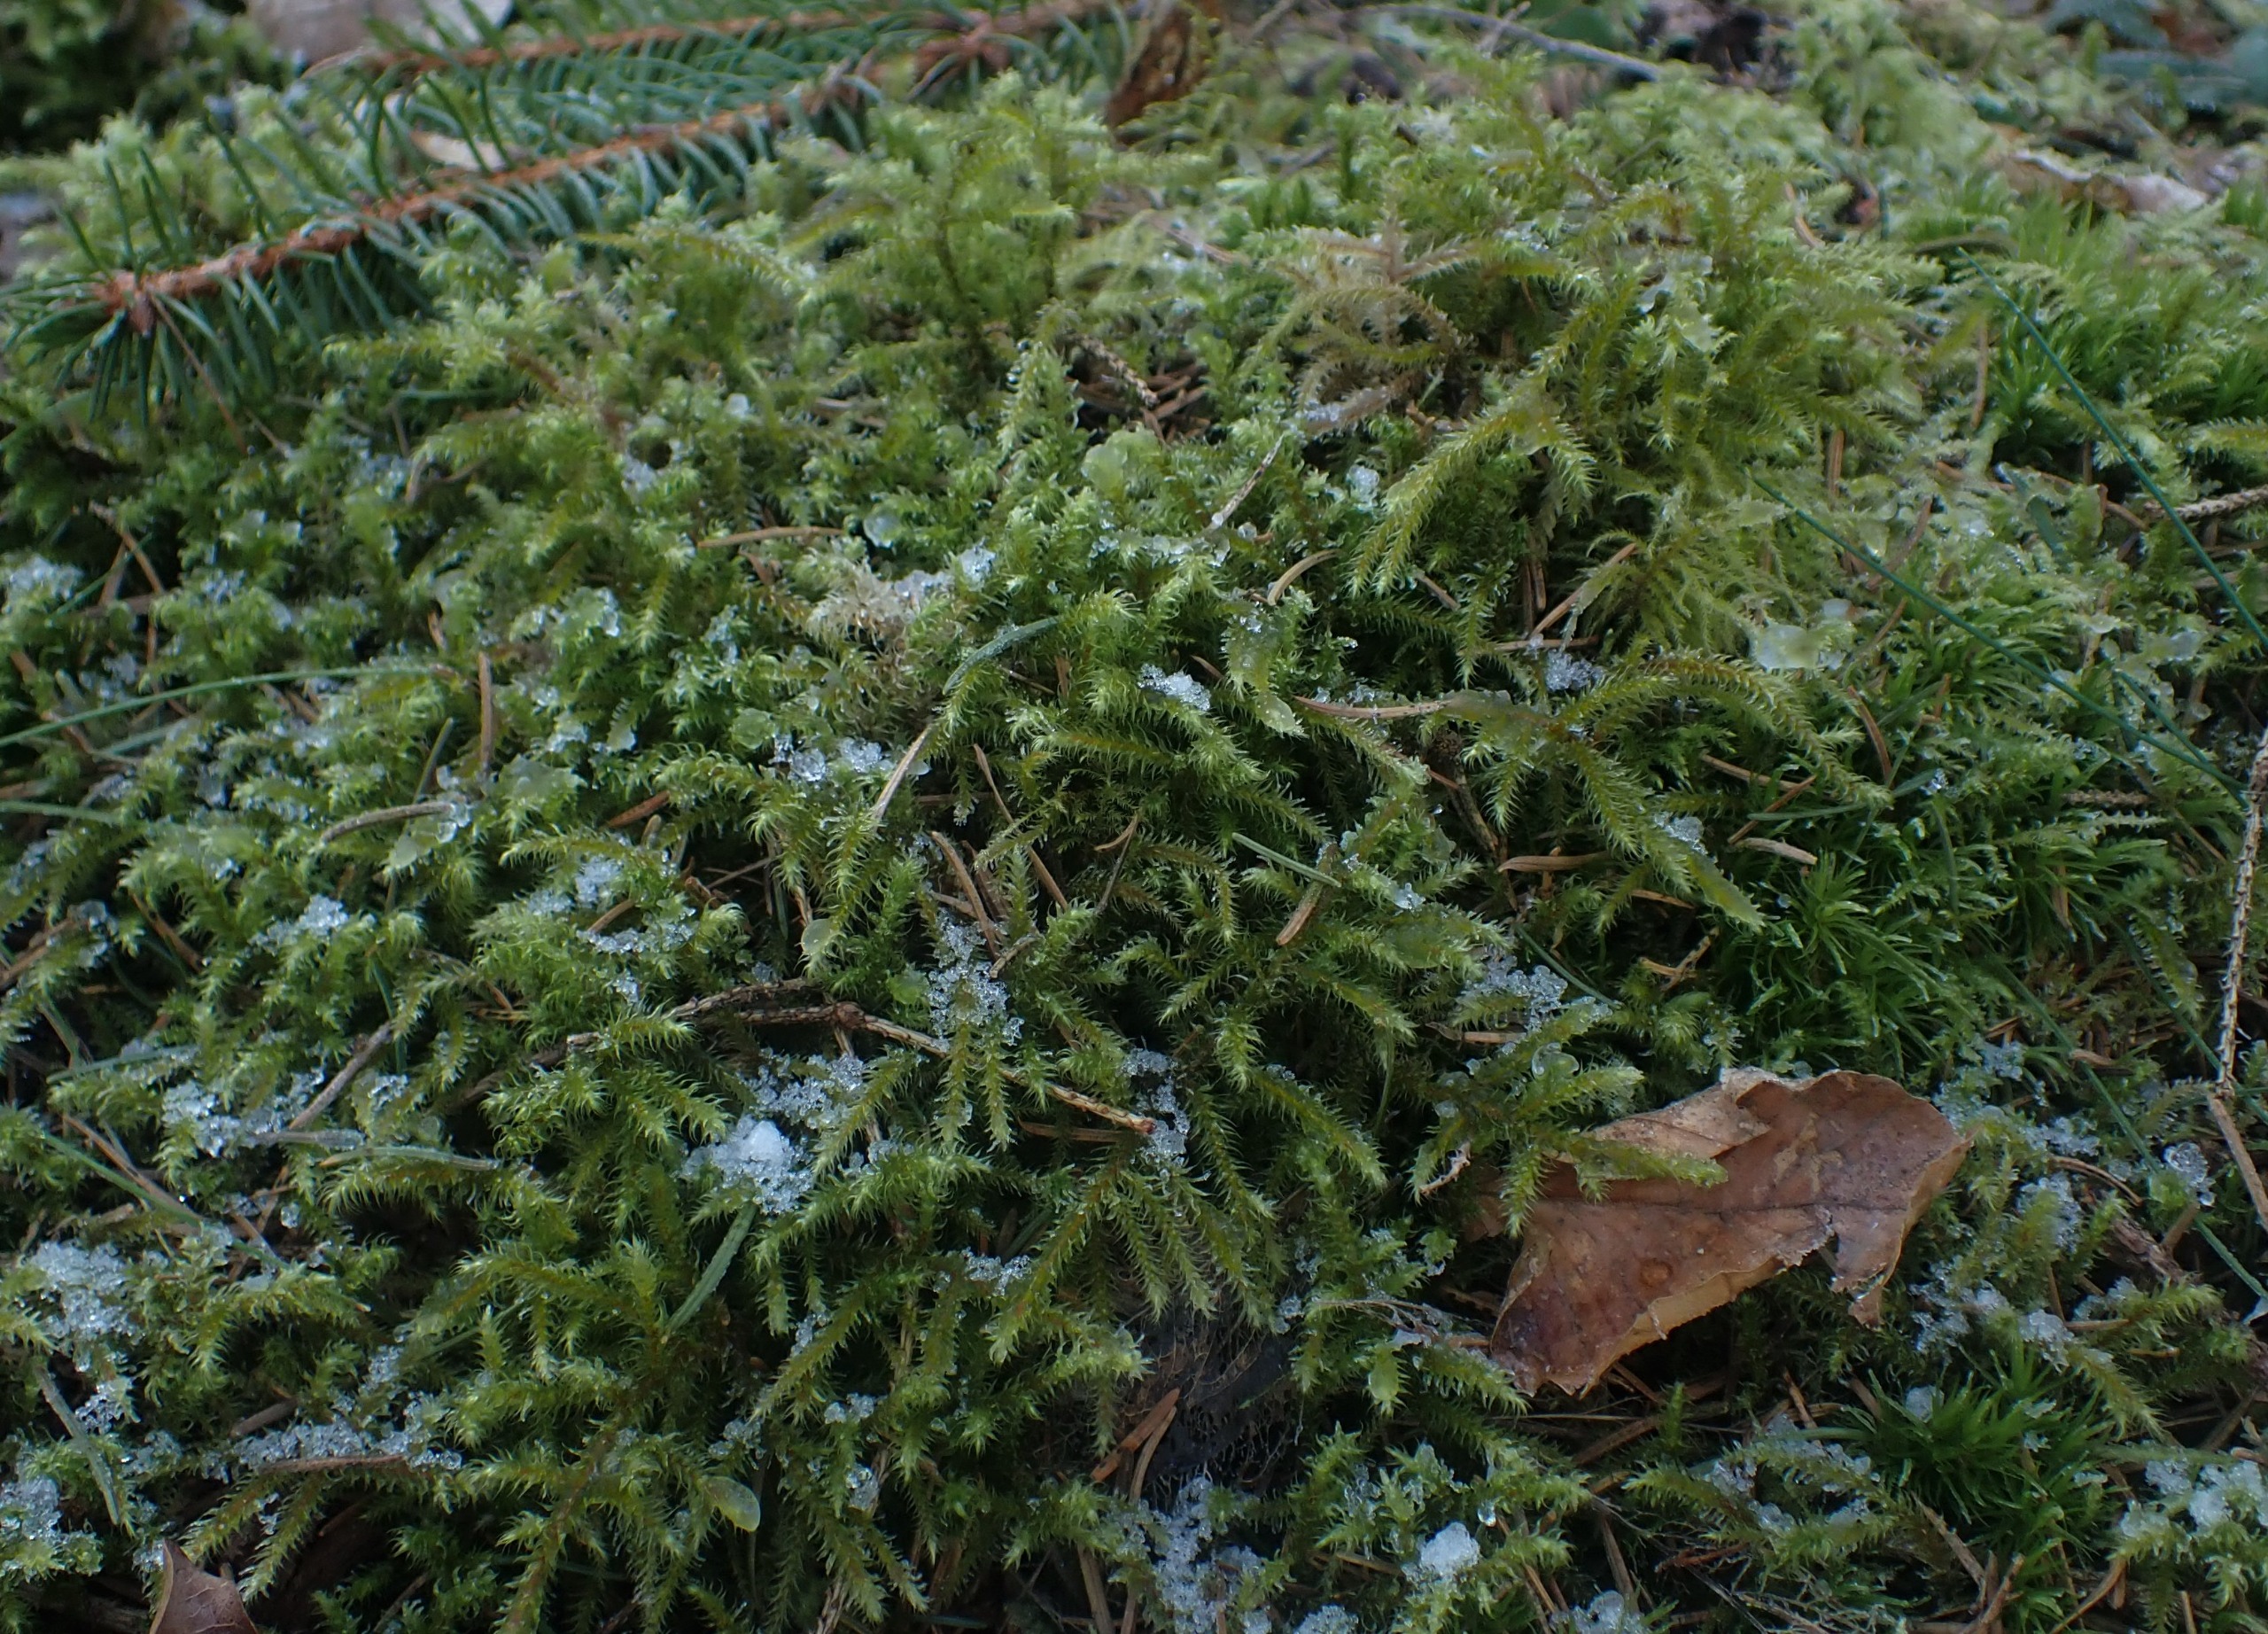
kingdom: Plantae
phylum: Bryophyta
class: Bryopsida
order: Hypnales
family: Hylocomiaceae
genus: Rhytidiadelphus
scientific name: Rhytidiadelphus loreus
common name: Ulvefod-kransemos
